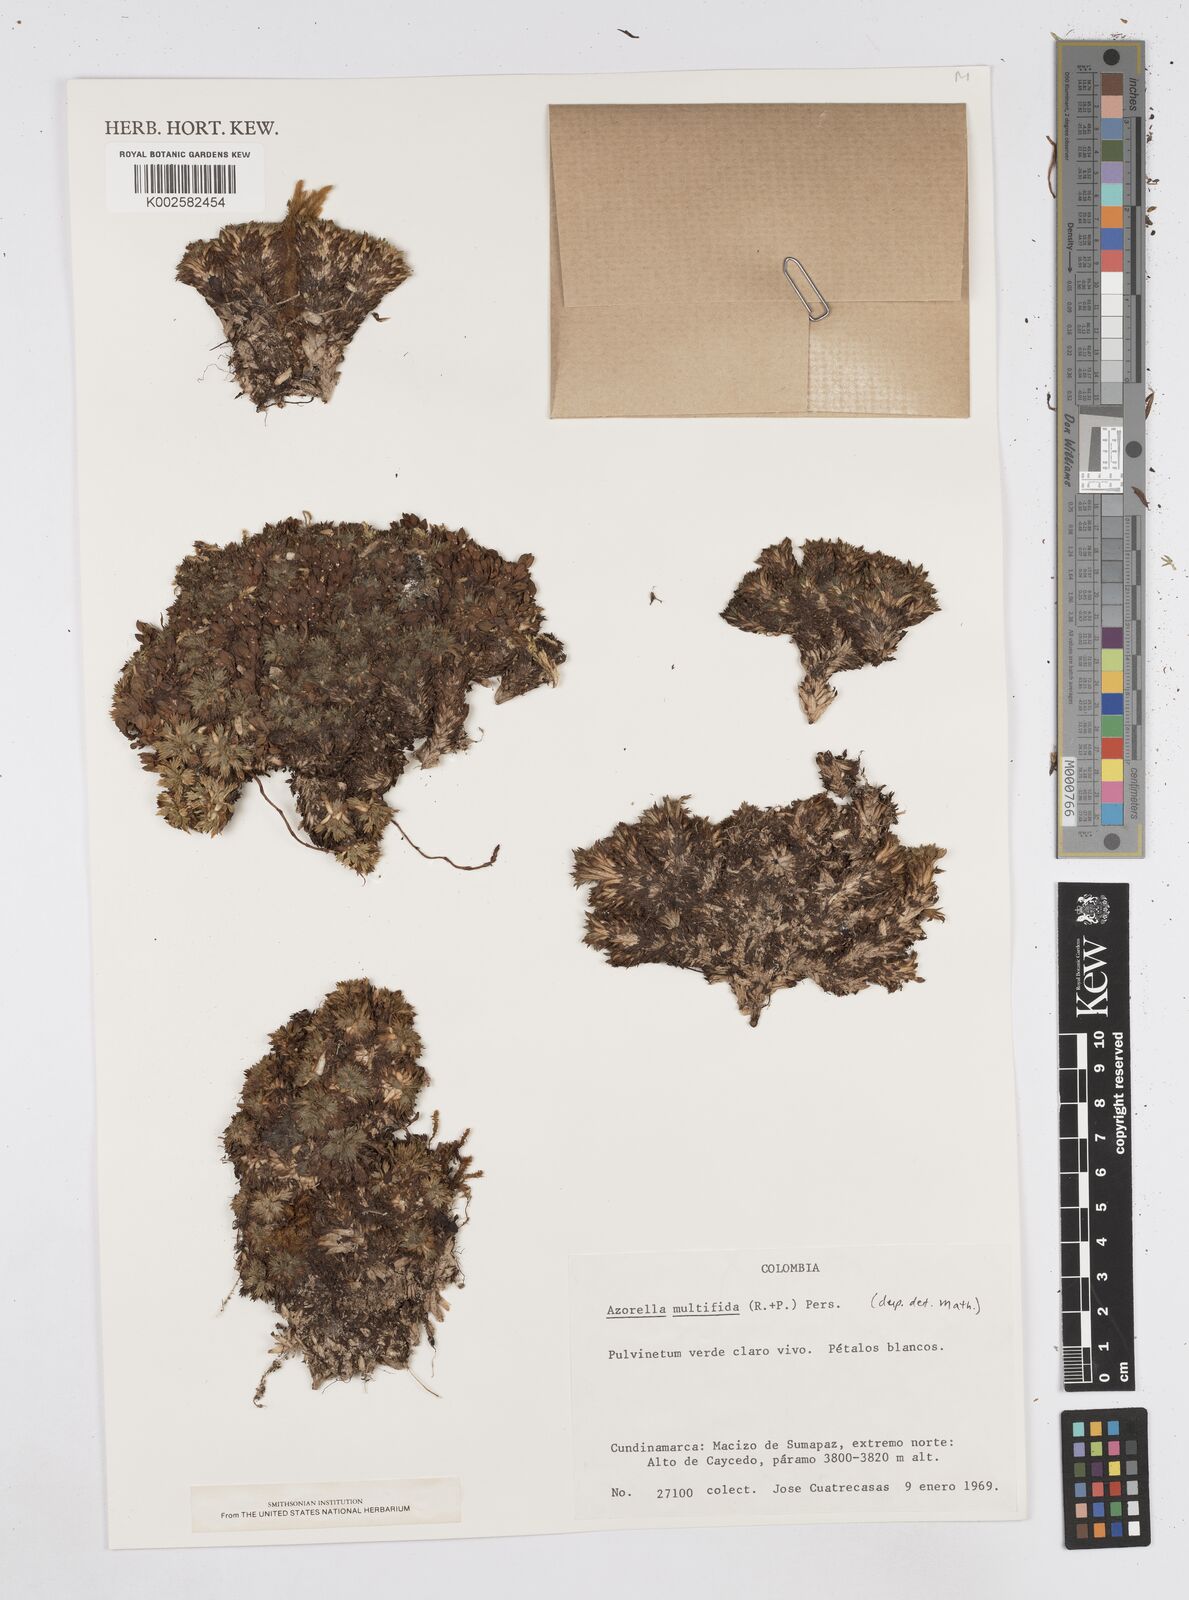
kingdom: Plantae
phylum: Tracheophyta
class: Magnoliopsida
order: Apiales
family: Apiaceae
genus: Azorella
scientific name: Azorella
